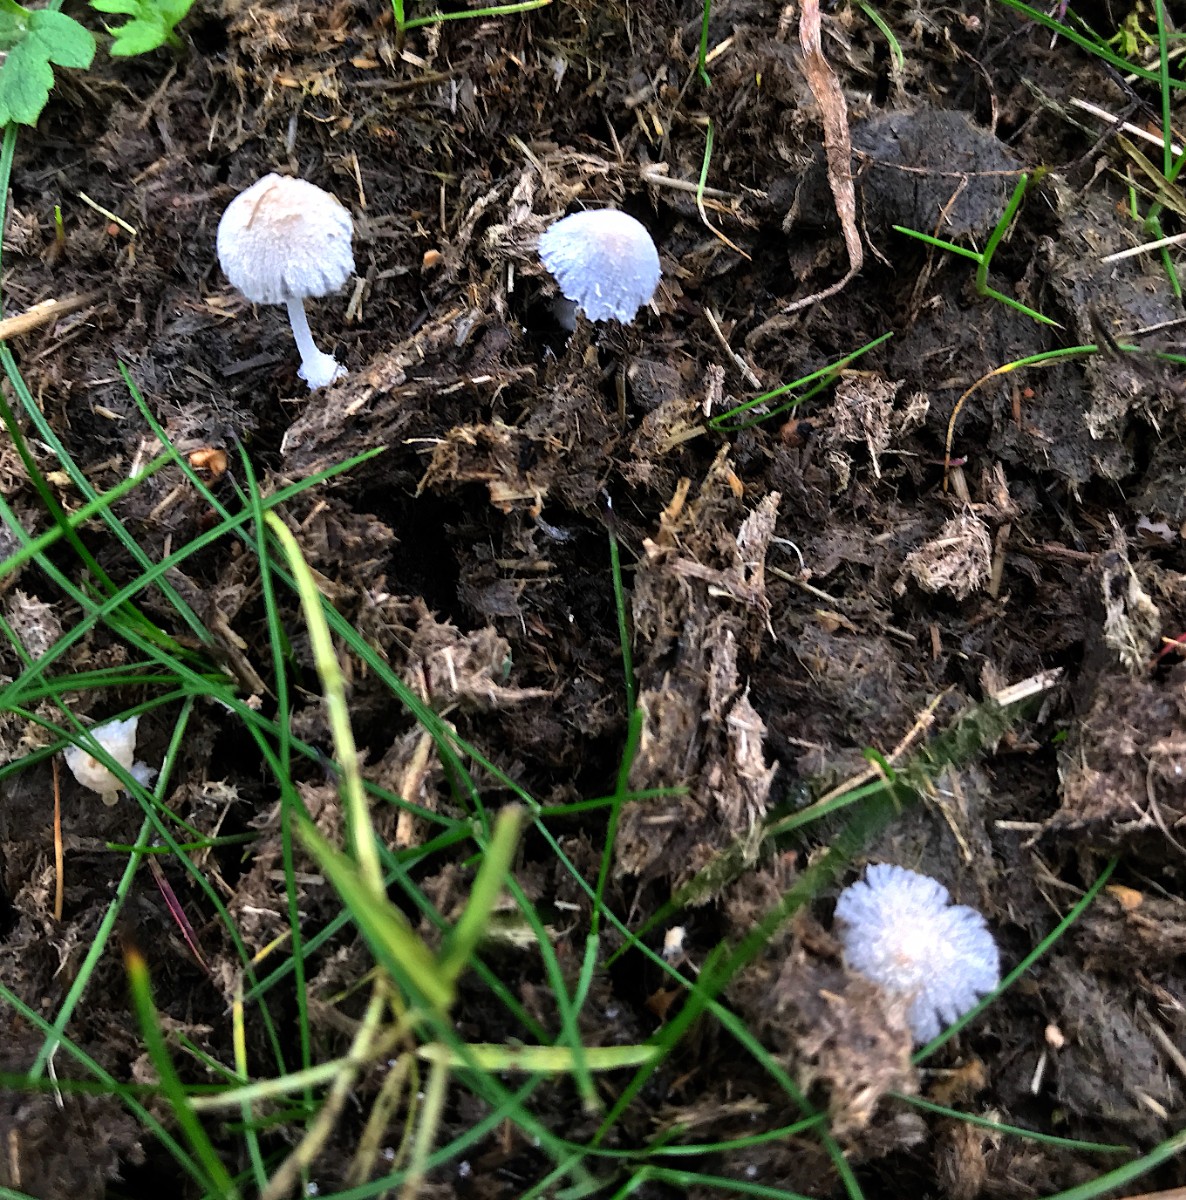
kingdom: Fungi
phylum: Basidiomycota
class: Agaricomycetes
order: Agaricales
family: Psathyrellaceae
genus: Coprinopsis
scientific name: Coprinopsis nivea
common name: snehvid blækhat
